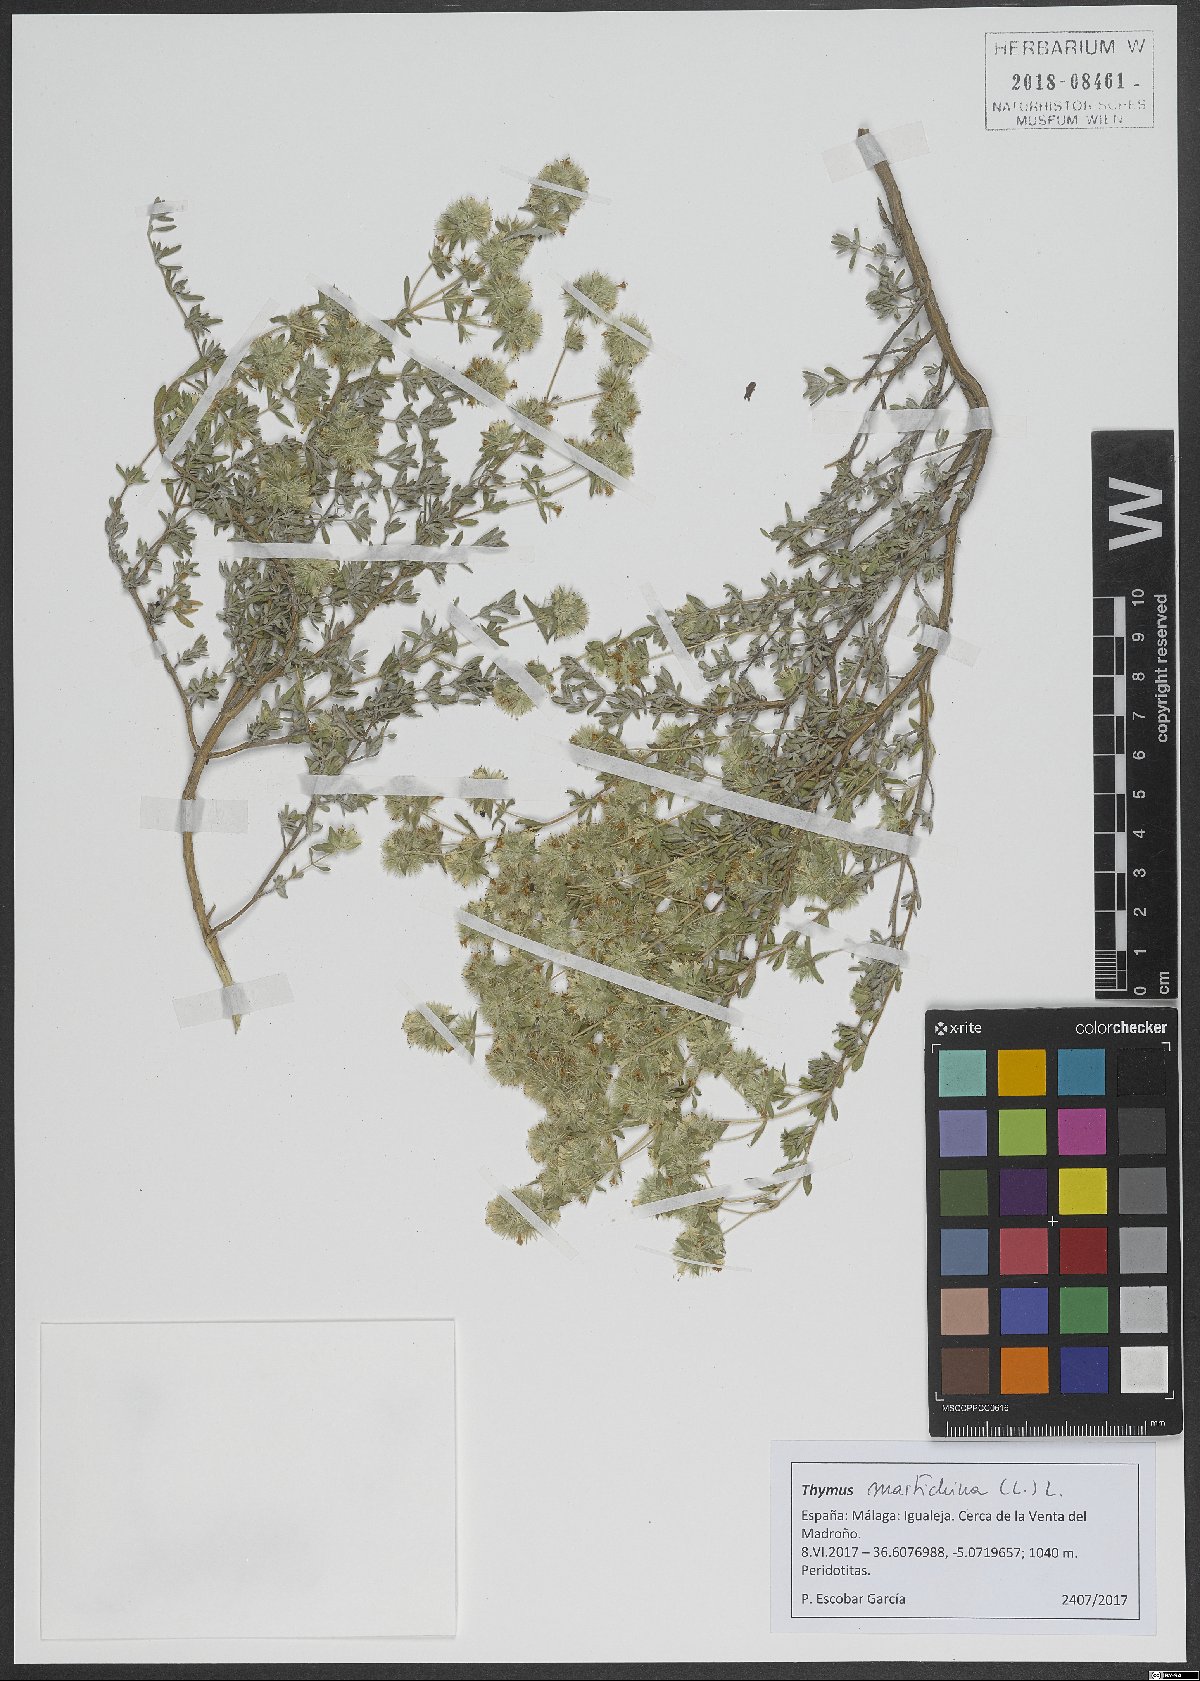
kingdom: Plantae
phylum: Tracheophyta
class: Magnoliopsida
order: Lamiales
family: Lamiaceae
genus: Thymus
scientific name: Thymus mastichina
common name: Mastic thyme
